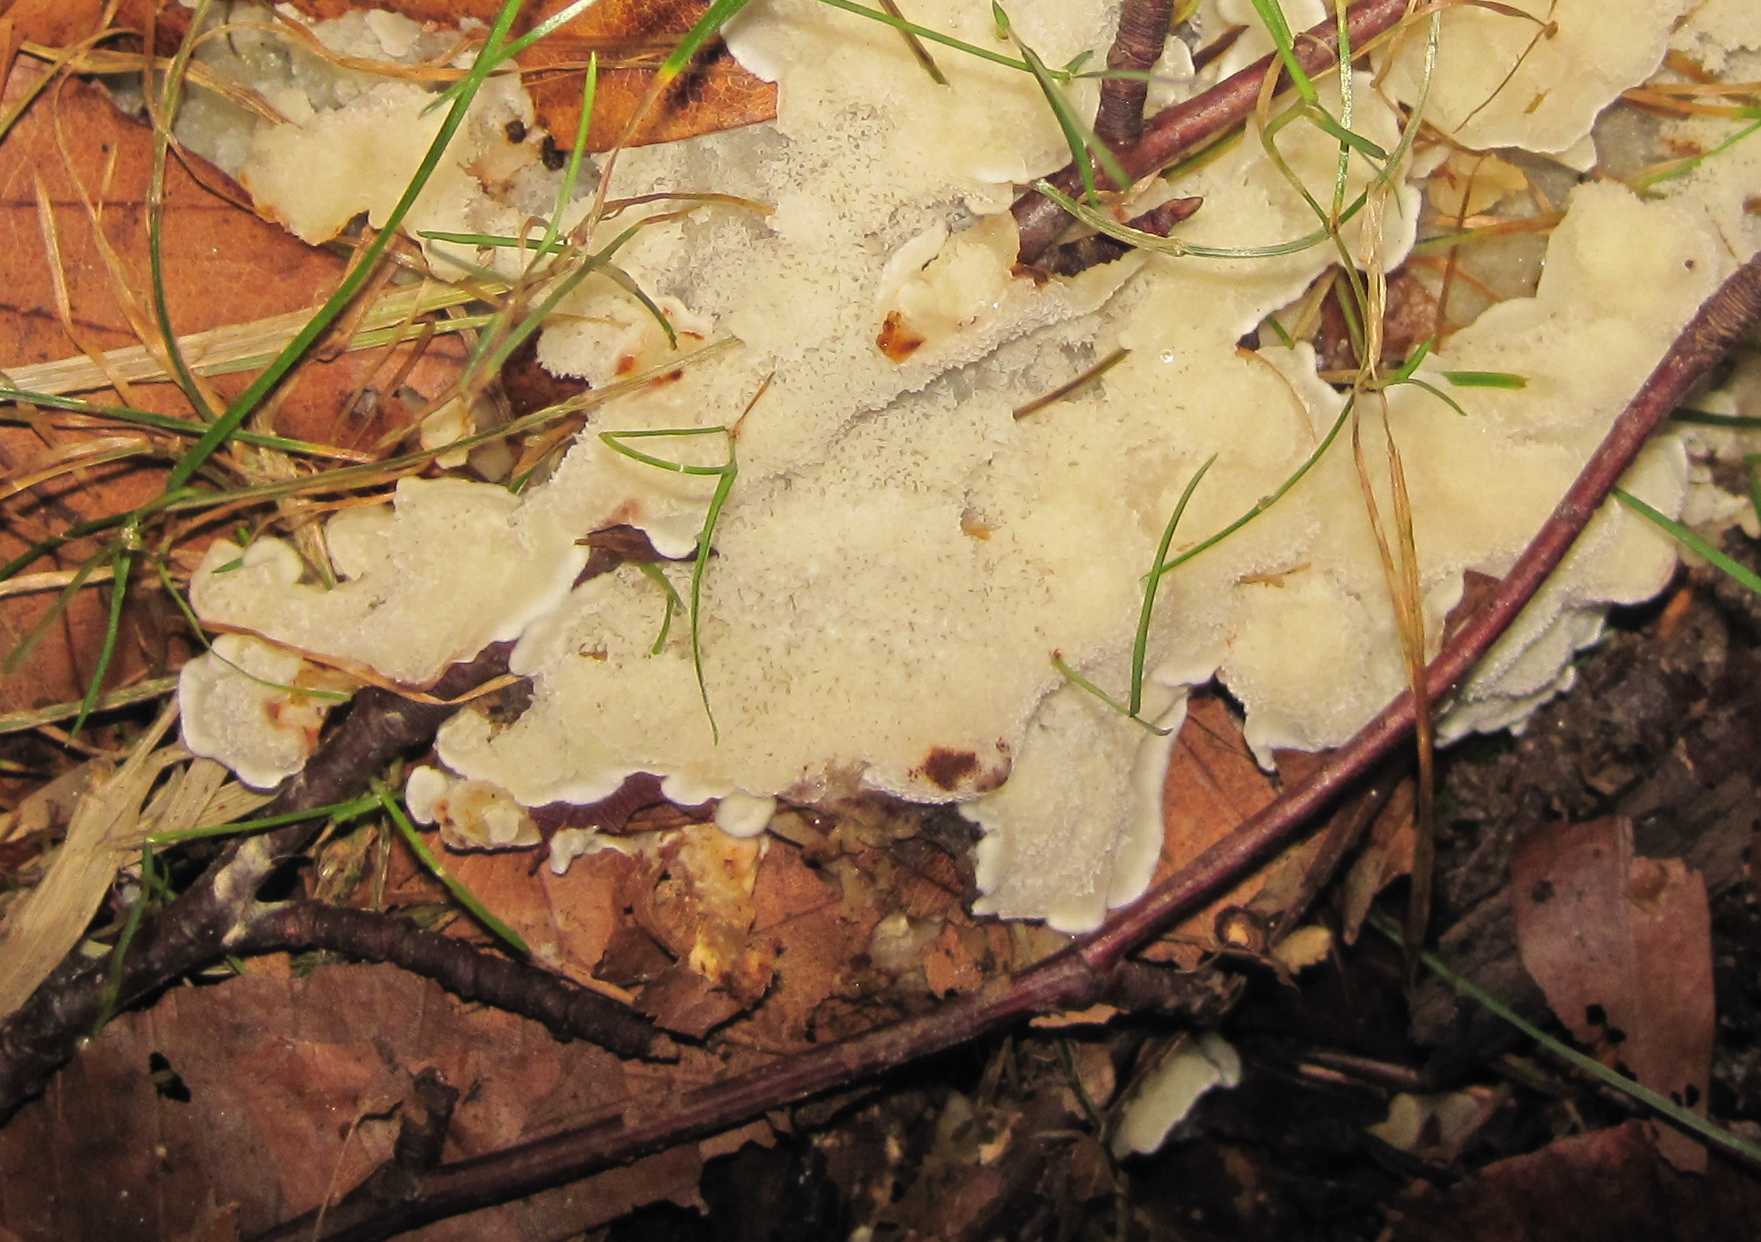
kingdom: Fungi
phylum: Basidiomycota
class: Agaricomycetes
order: Polyporales
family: Meripilaceae
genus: Rigidoporus
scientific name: Rigidoporus sanguinolentus
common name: blod-skorpeporesvamp
